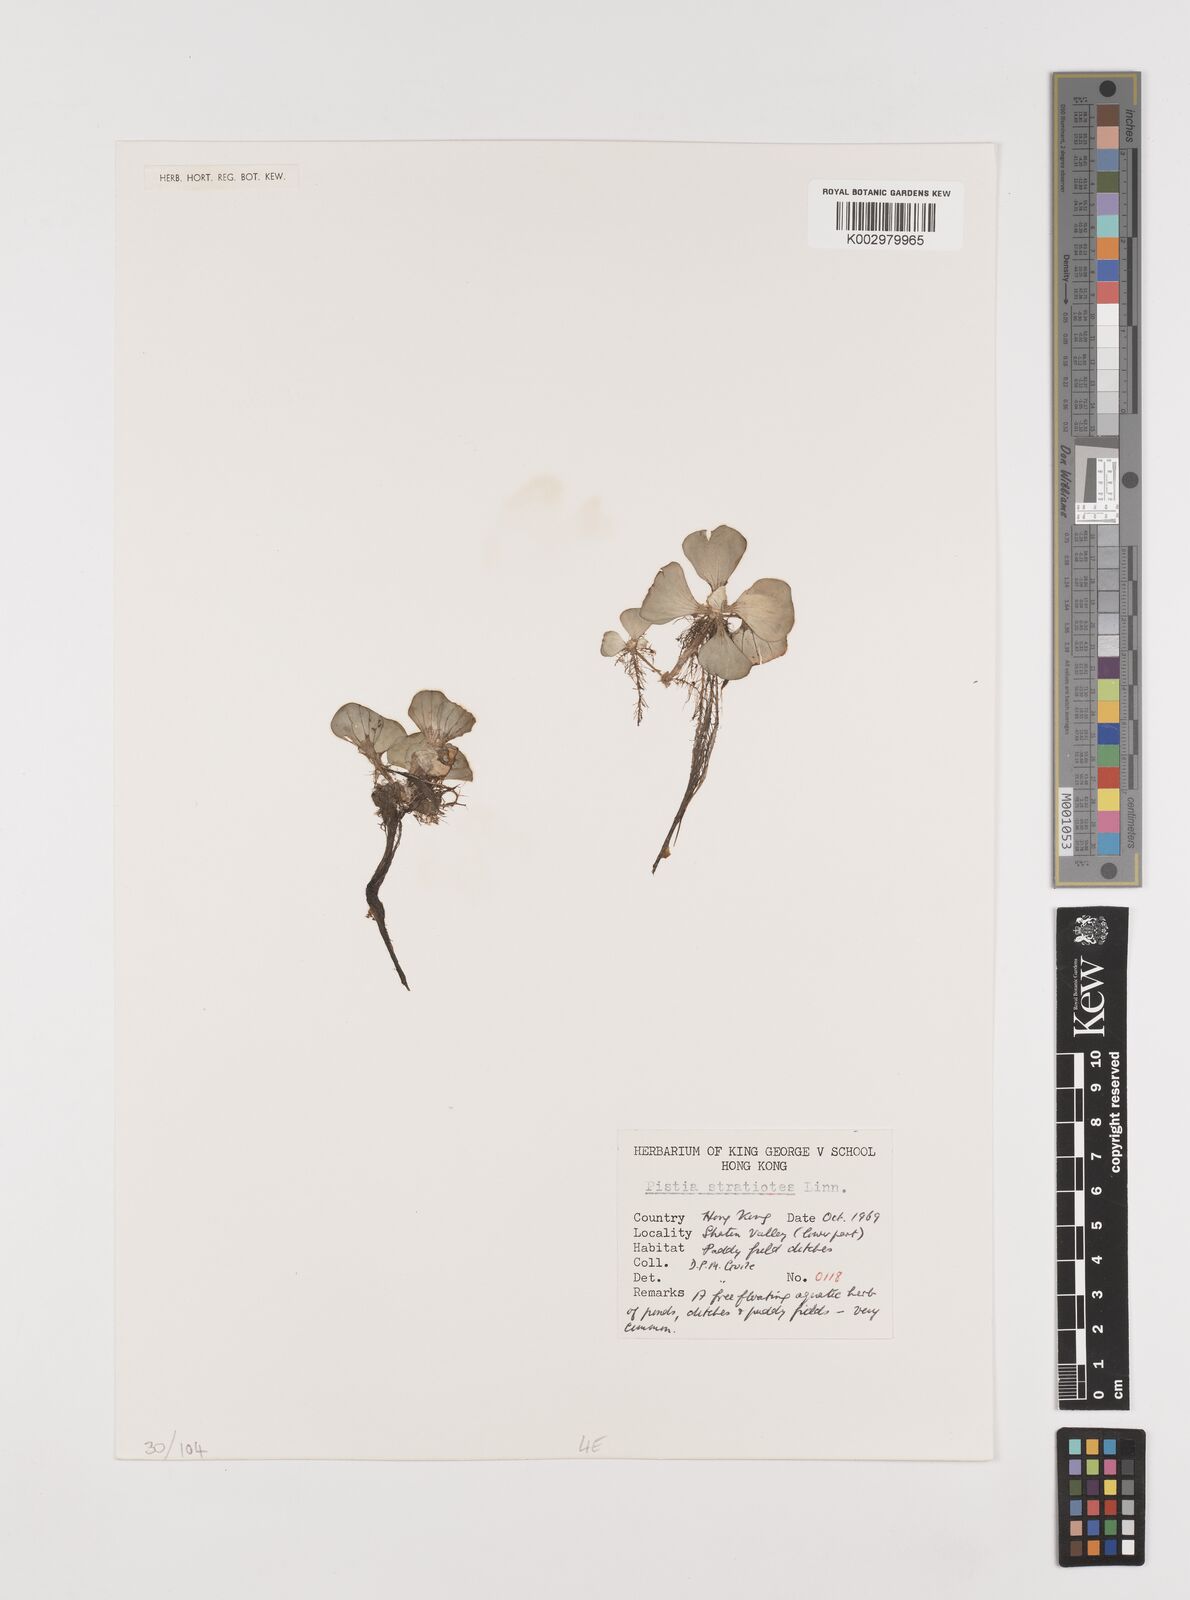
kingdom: Plantae
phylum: Tracheophyta
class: Liliopsida
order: Alismatales
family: Araceae
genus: Pistia
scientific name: Pistia stratiotes
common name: Water lettuce
